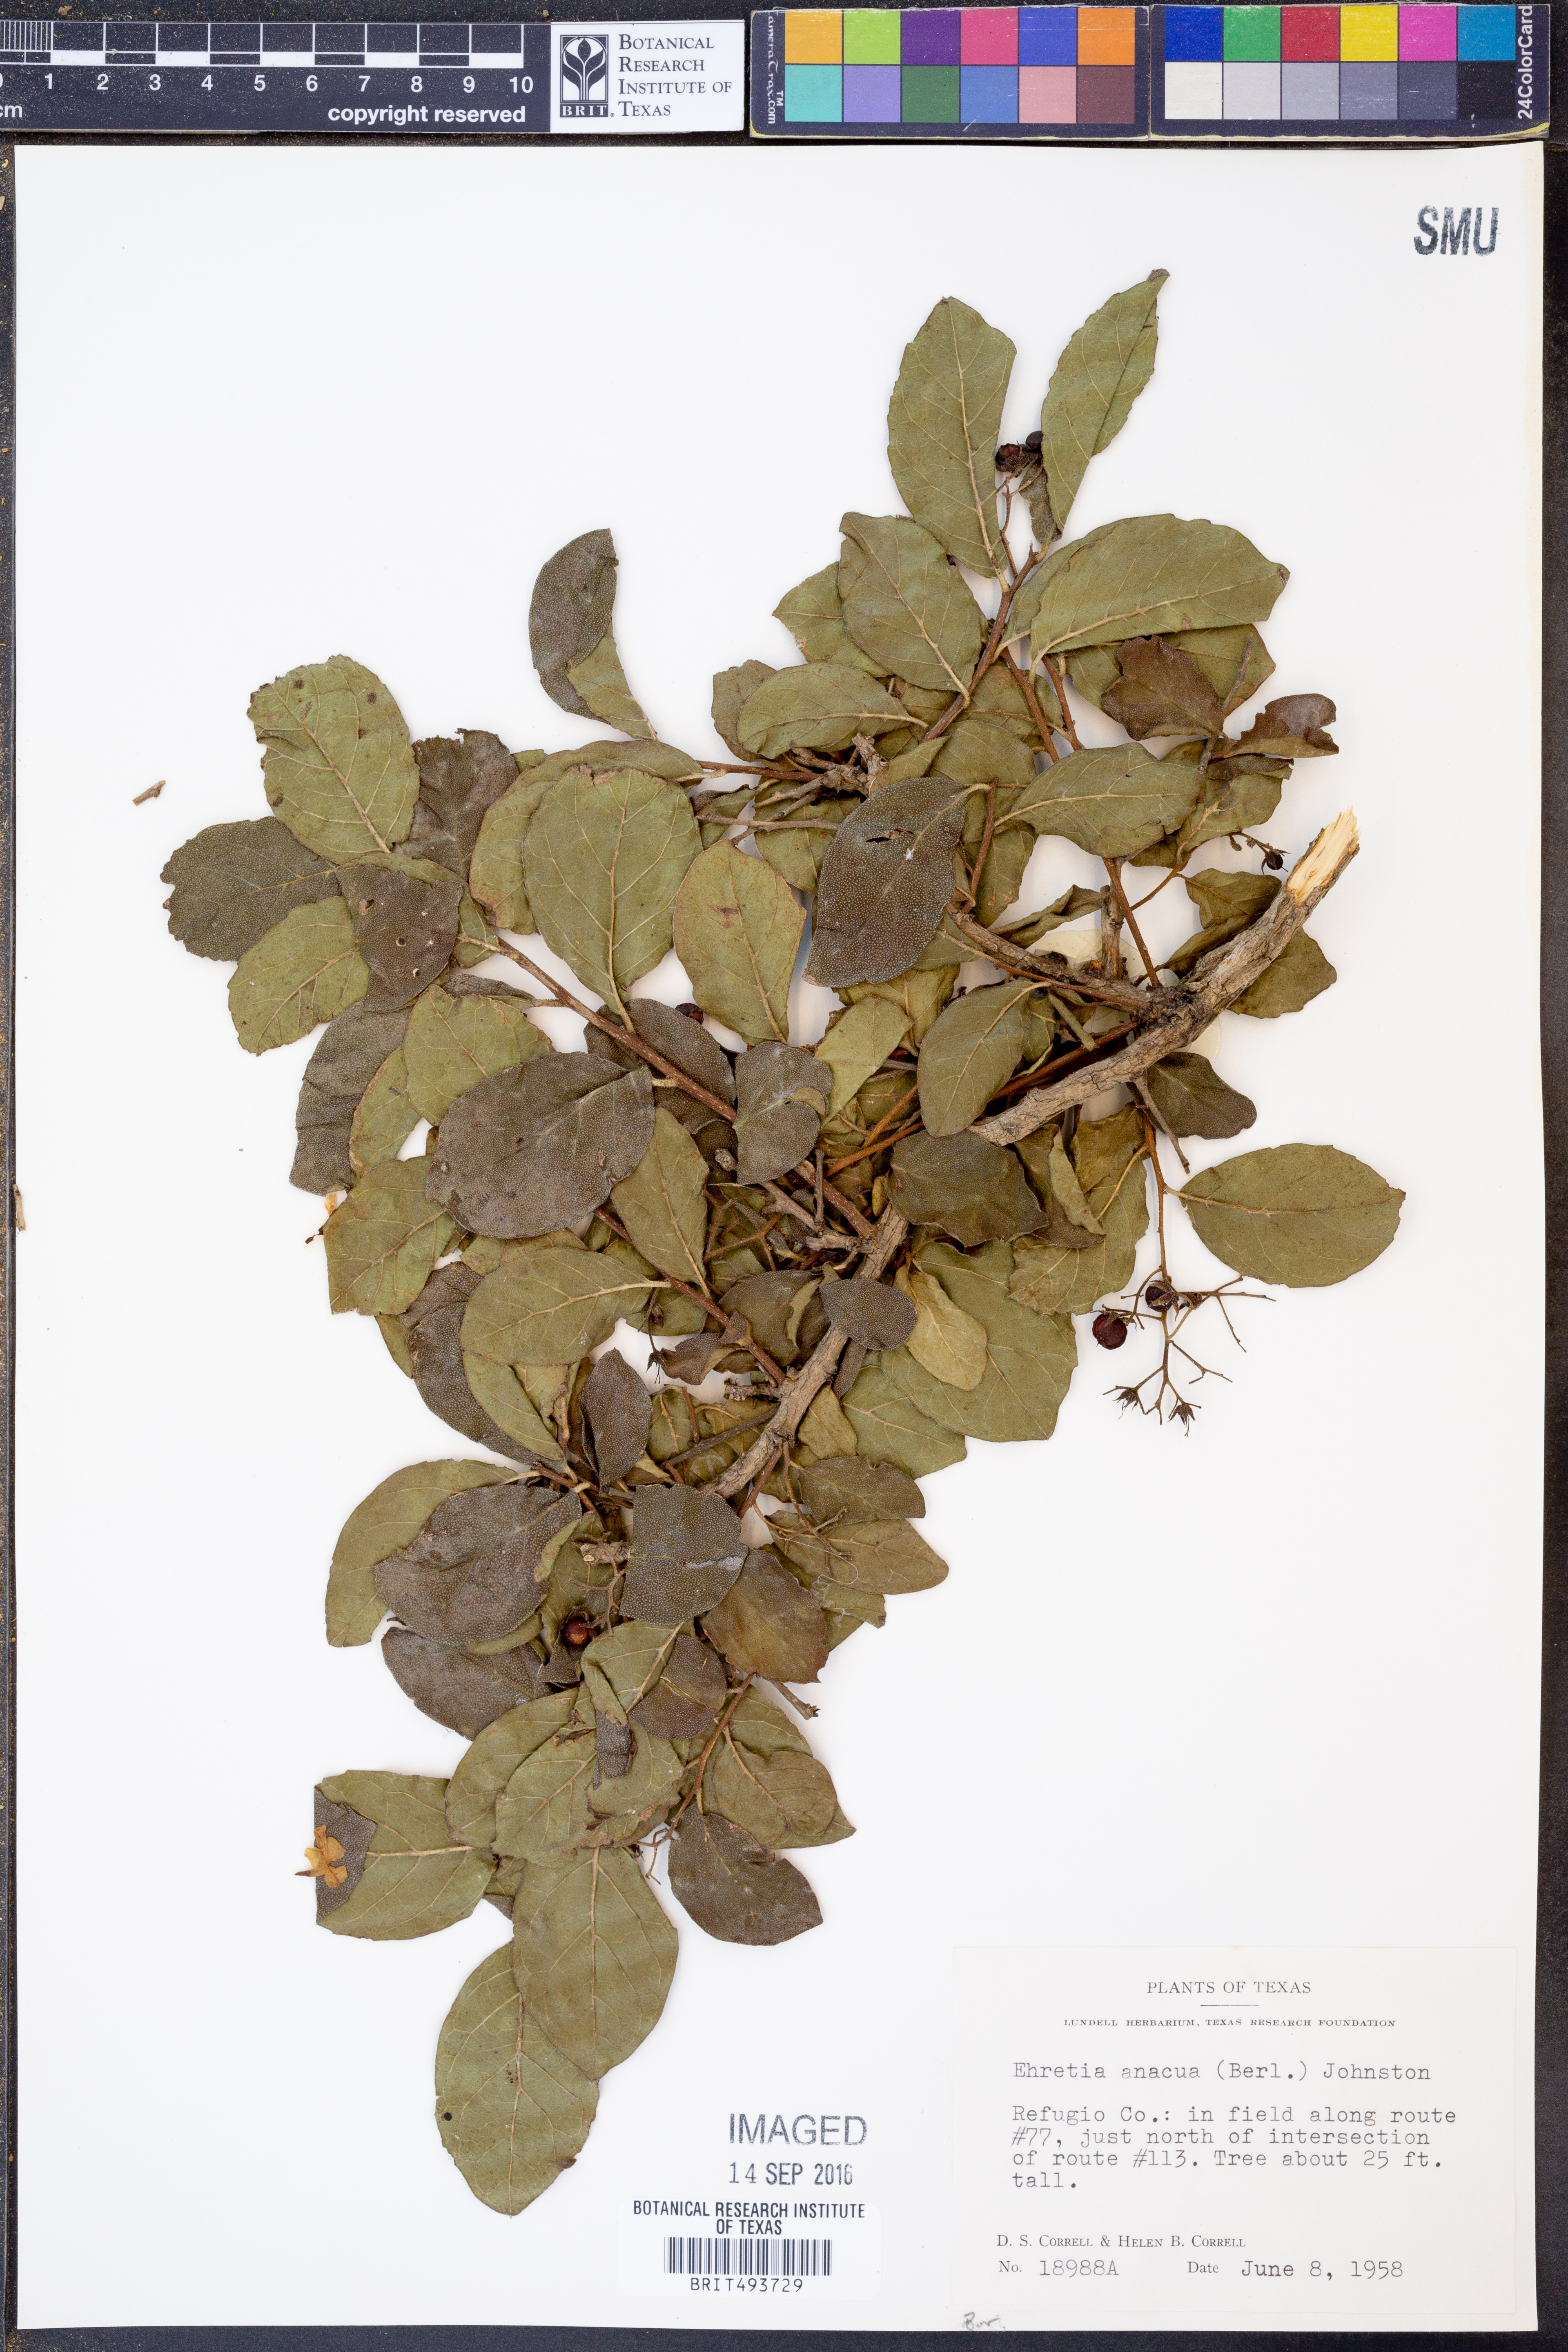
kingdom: Plantae
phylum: Tracheophyta
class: Magnoliopsida
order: Boraginales
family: Ehretiaceae
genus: Ehretia
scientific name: Ehretia anacua
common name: Sugarberry
